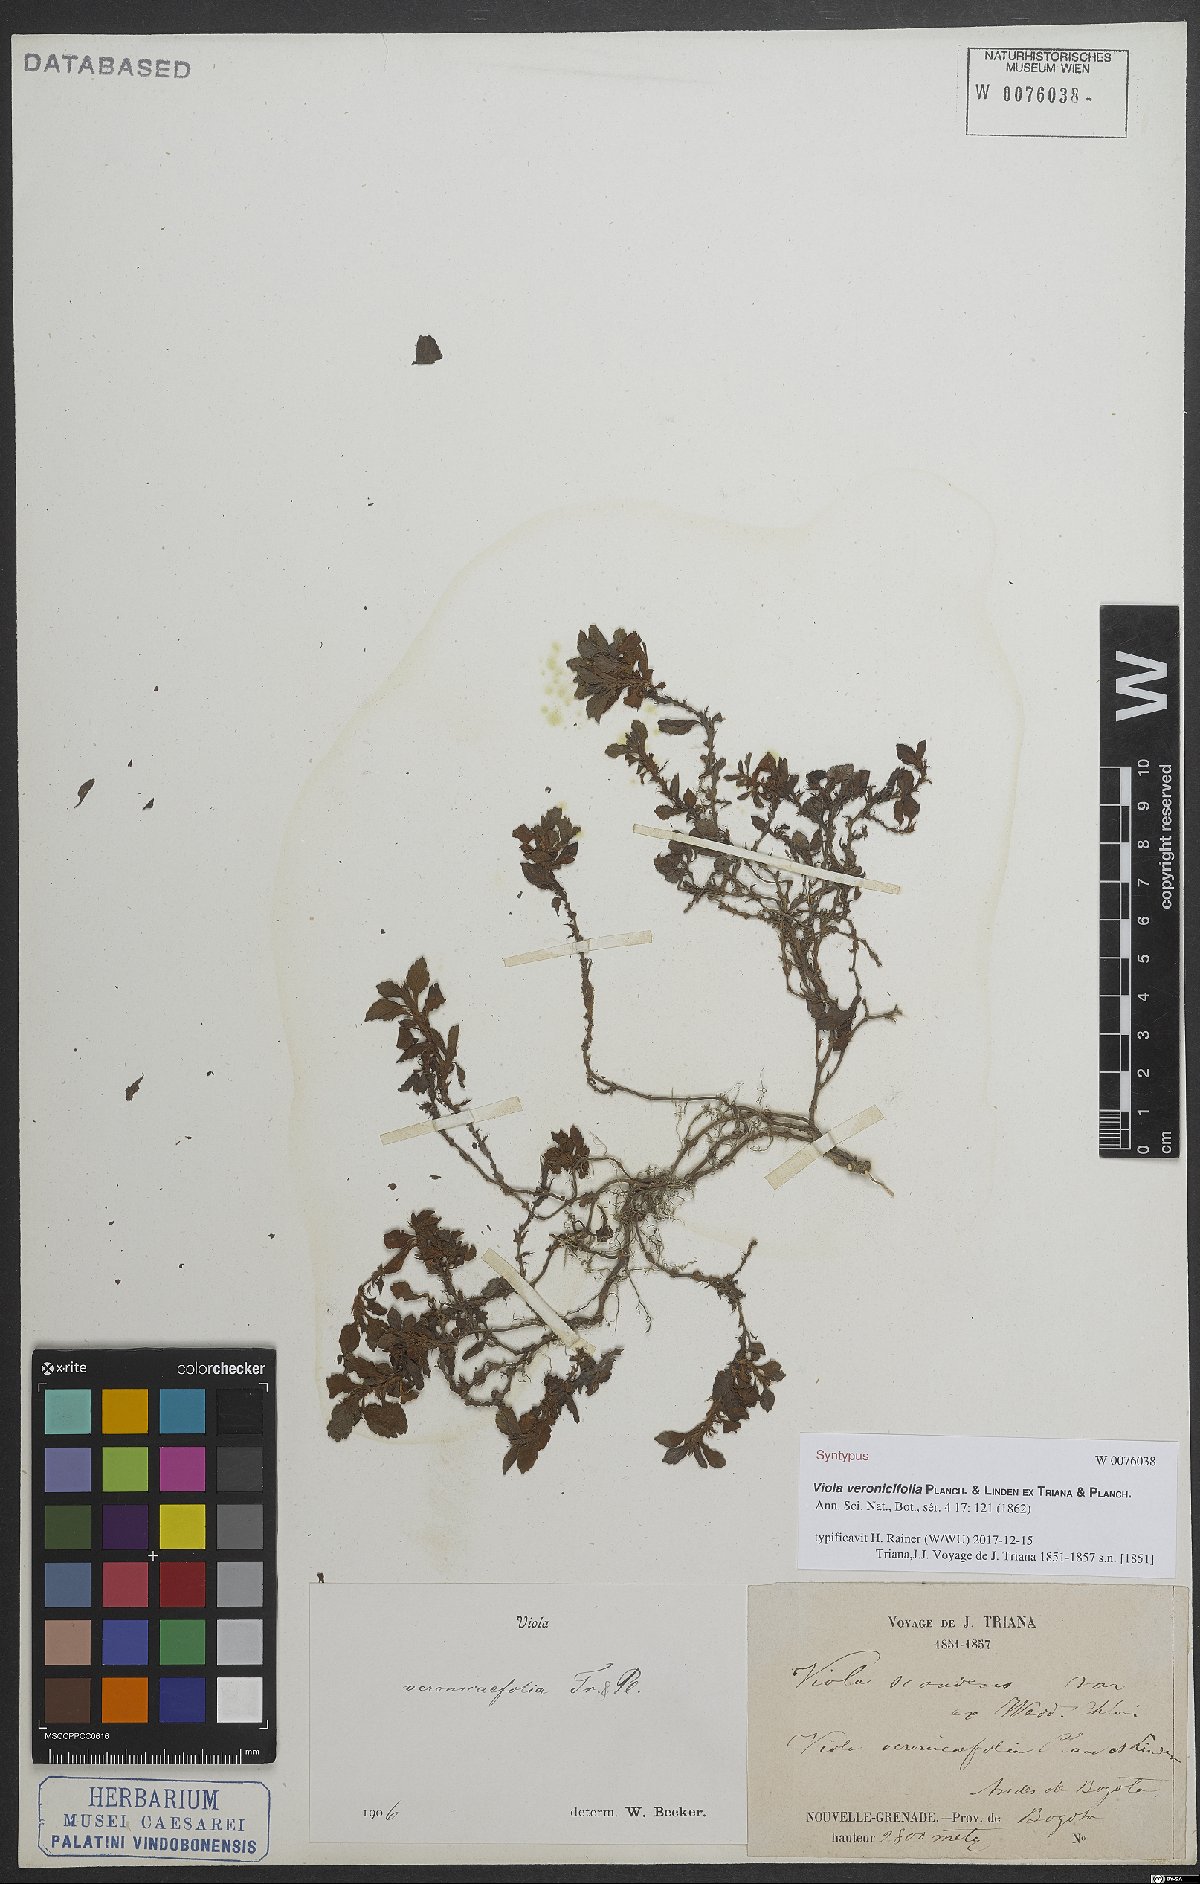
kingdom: Plantae
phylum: Tracheophyta
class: Magnoliopsida
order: Malpighiales
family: Violaceae
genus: Viola
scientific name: Viola veronicifolia
